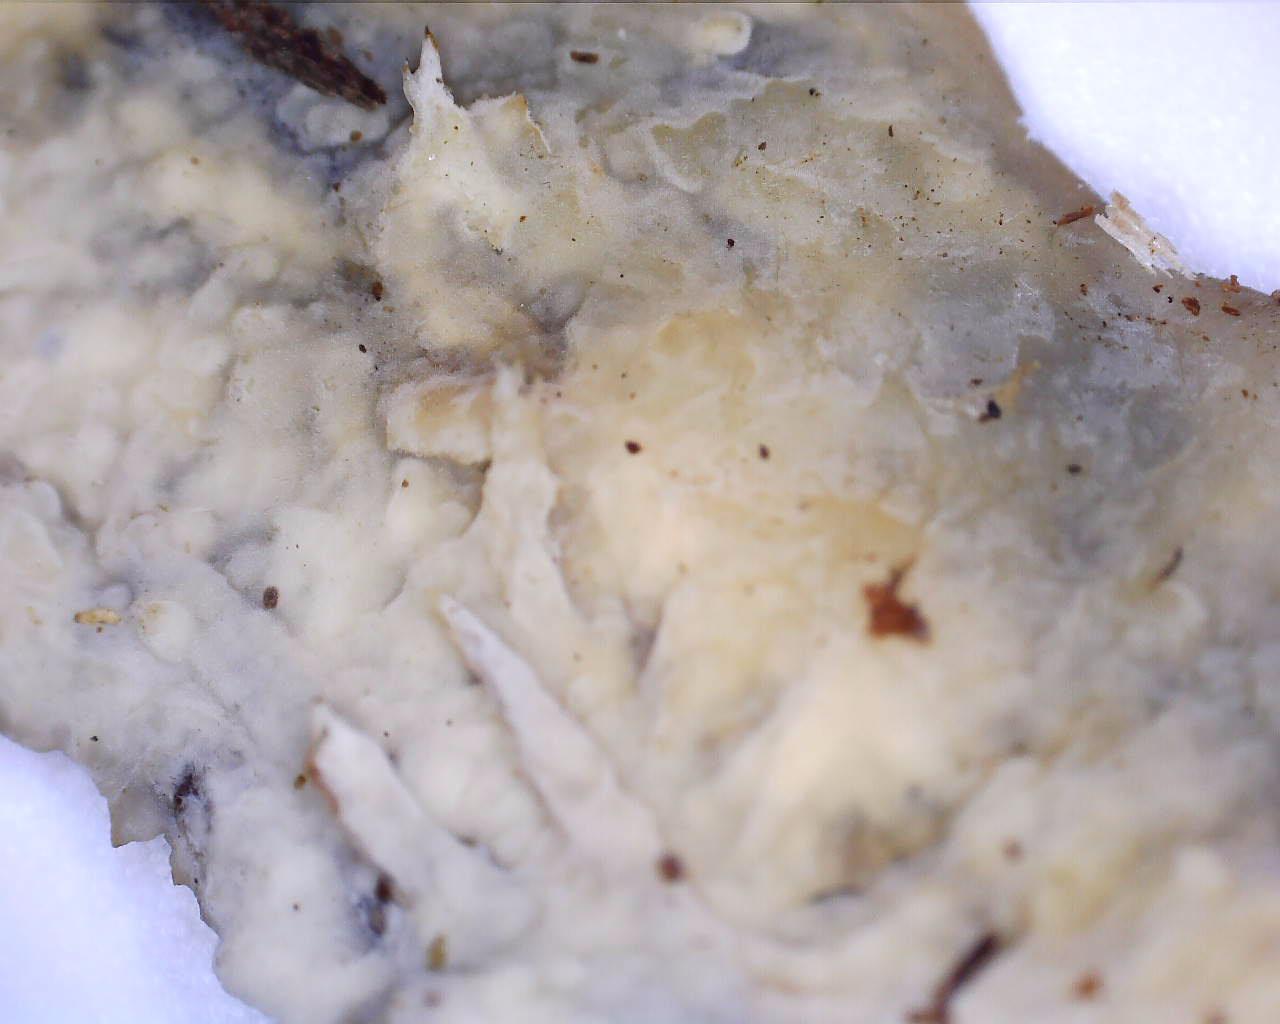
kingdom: Fungi
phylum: Basidiomycota
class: Agaricomycetes
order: Corticiales
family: Corticiaceae
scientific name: Corticiaceae
